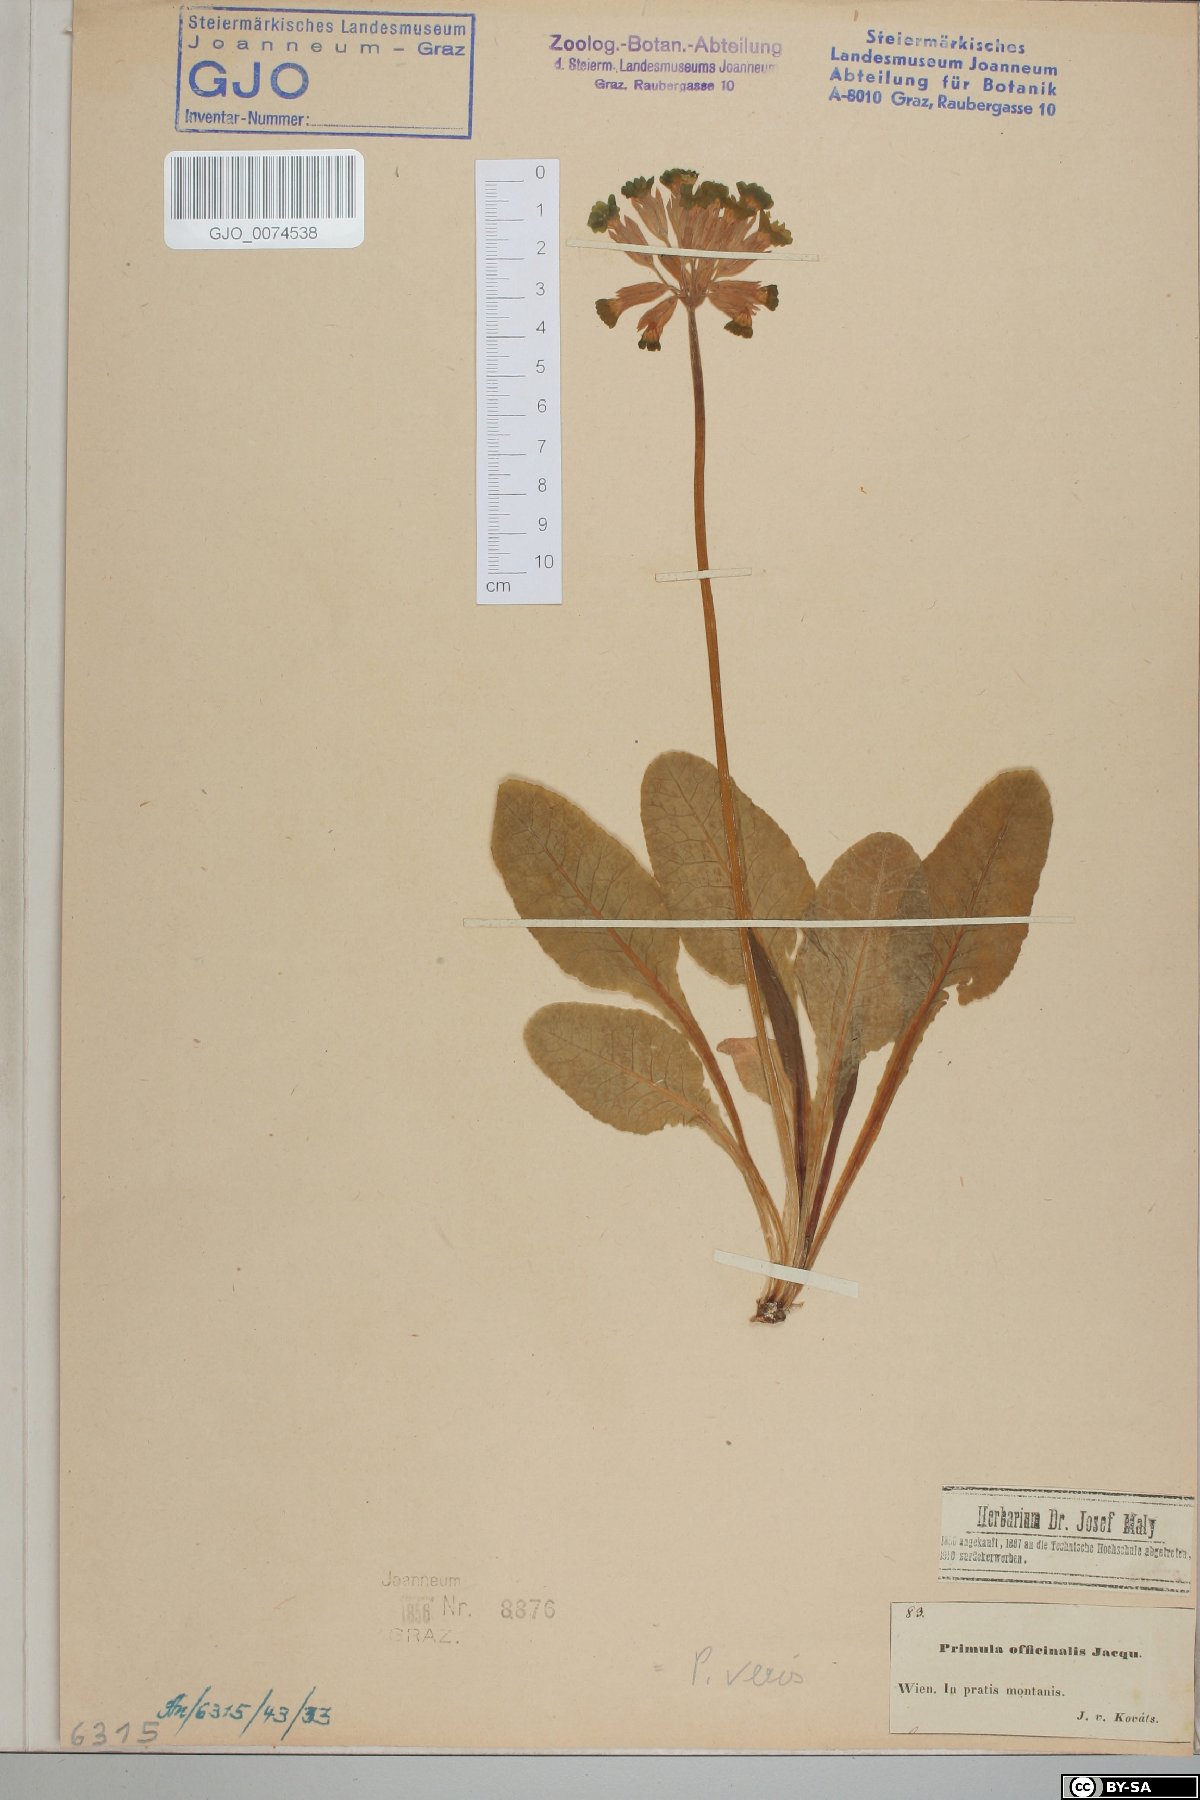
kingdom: Plantae
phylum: Tracheophyta
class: Magnoliopsida
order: Ericales
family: Primulaceae
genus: Primula
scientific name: Primula veris
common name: Cowslip
